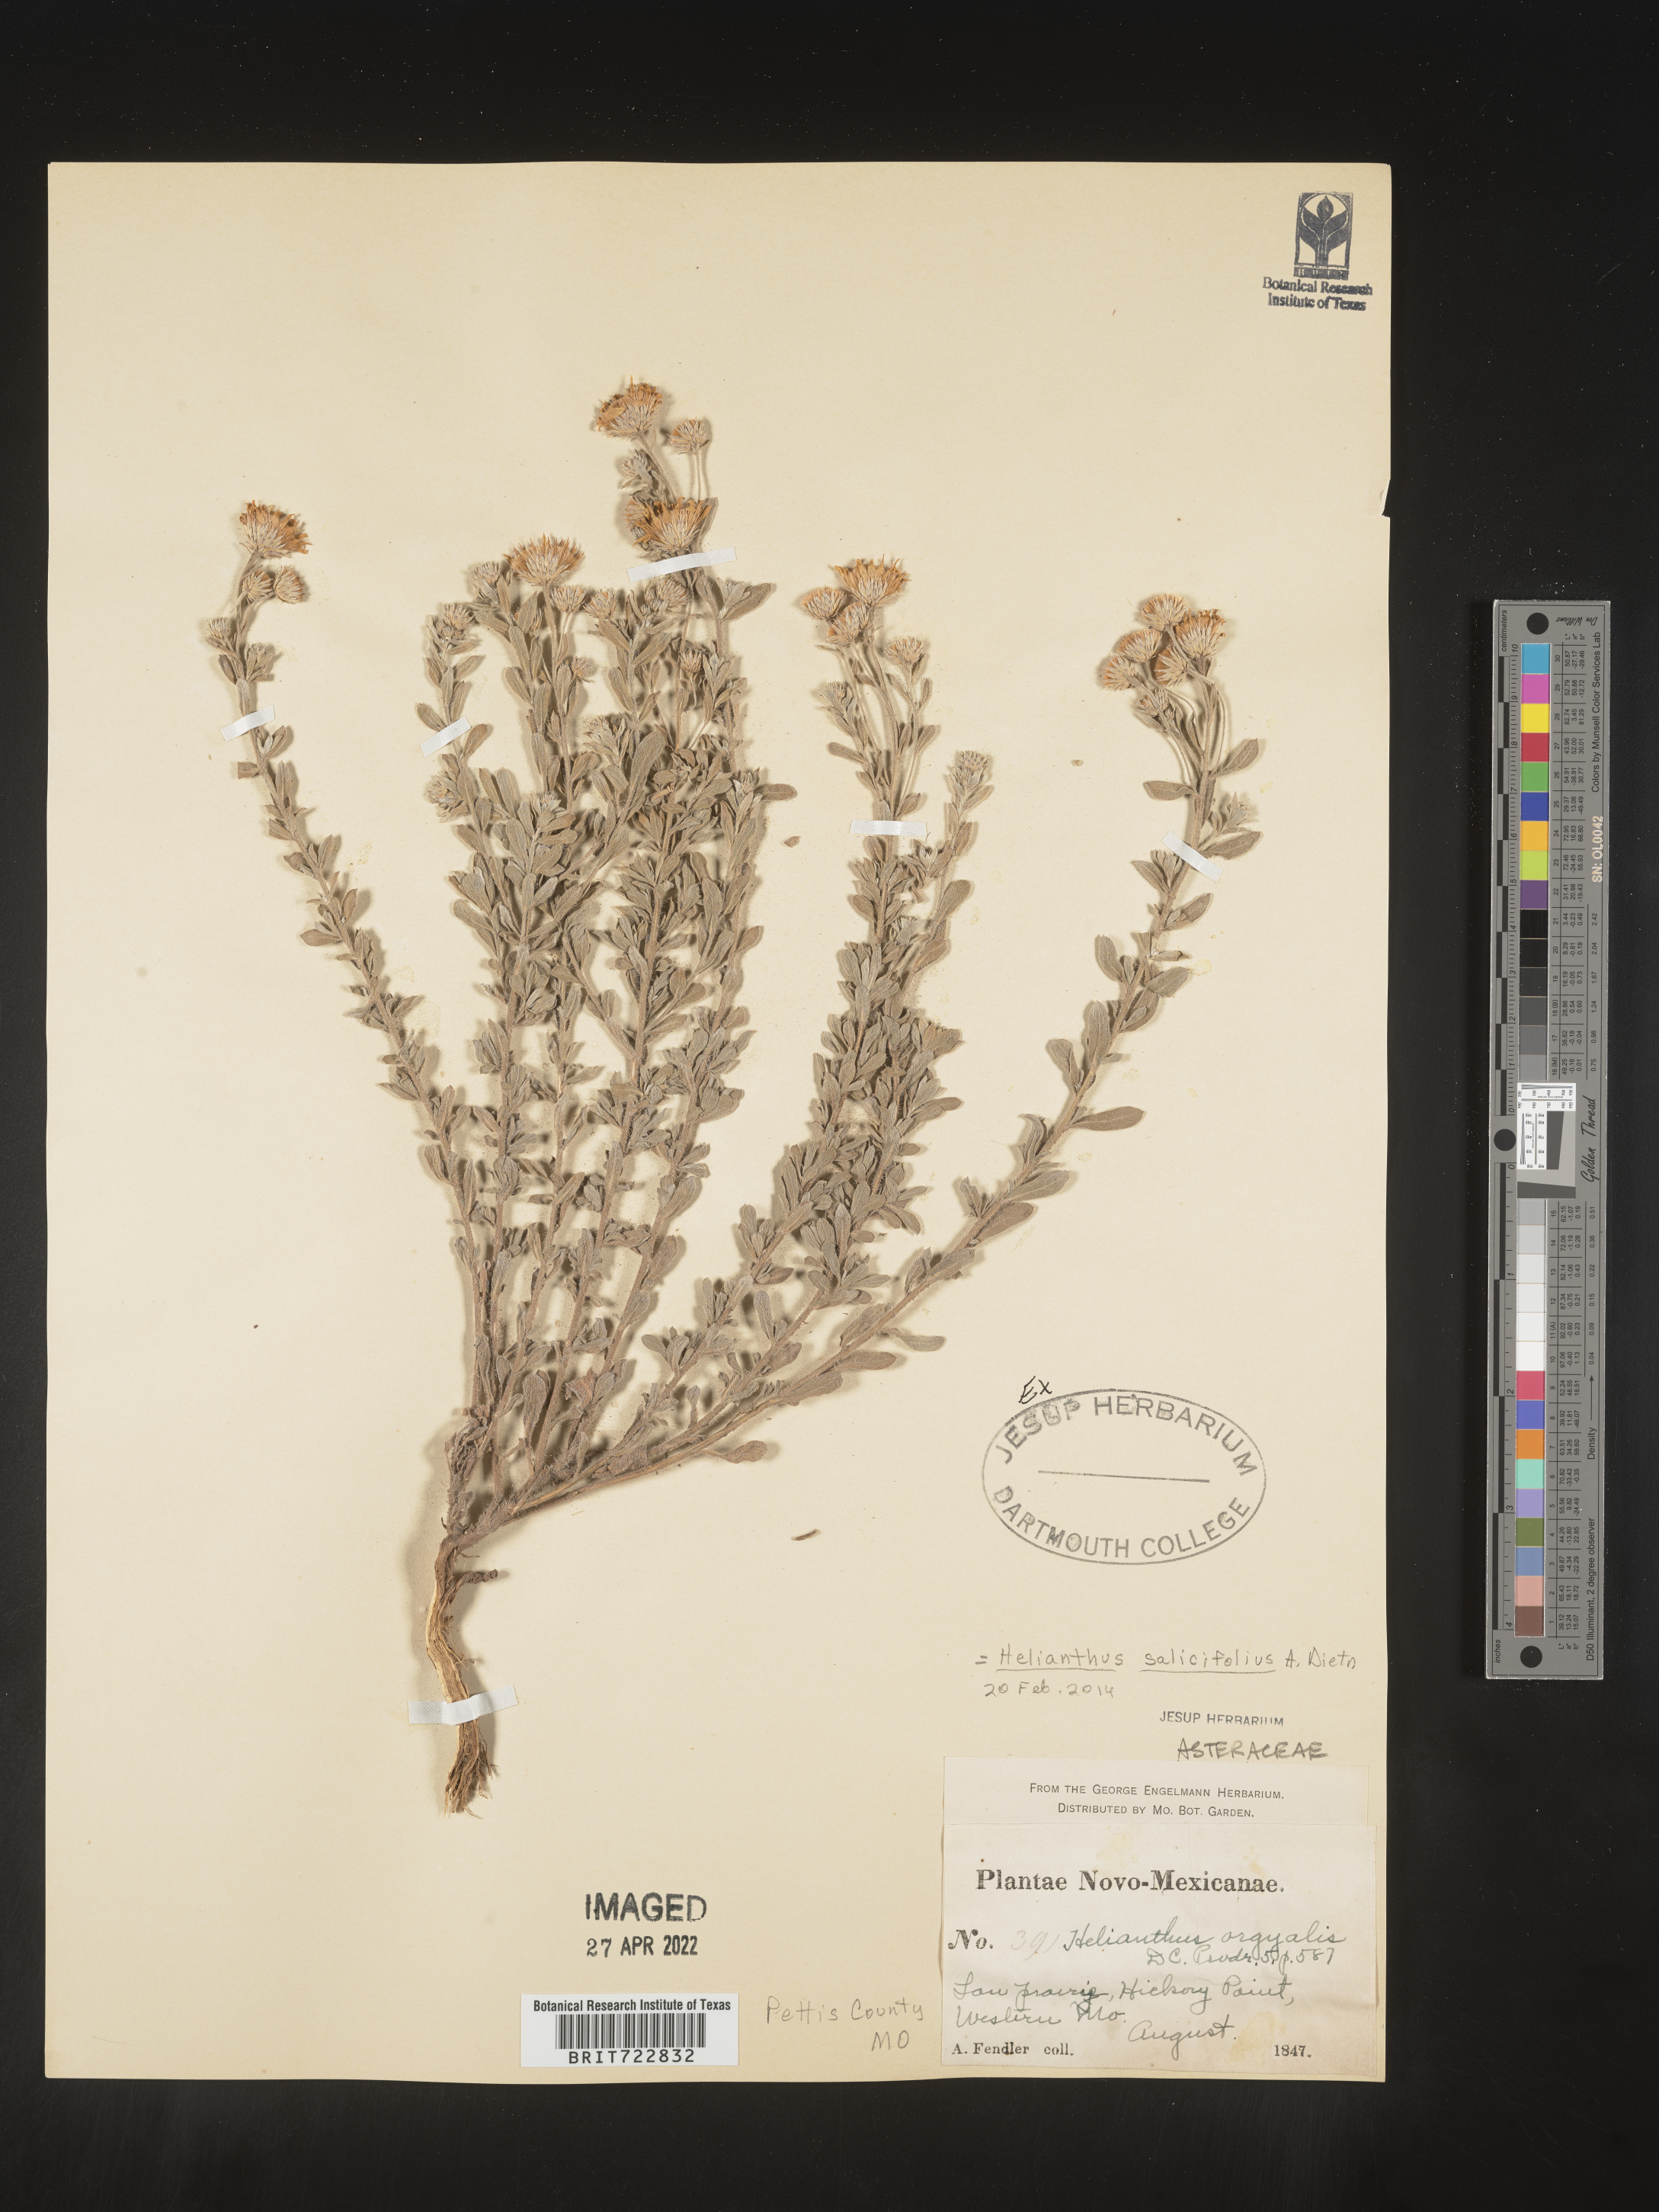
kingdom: Plantae
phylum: Tracheophyta
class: Magnoliopsida
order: Asterales
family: Asteraceae
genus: Helianthus
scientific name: Helianthus salicifolius
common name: Willowleaf sunflower
